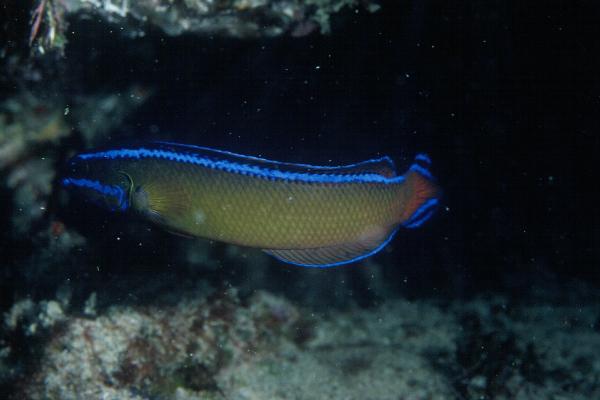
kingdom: Animalia
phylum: Chordata
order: Perciformes
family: Pseudochromidae
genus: Pseudochromis
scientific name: Pseudochromis dutoiti
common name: Dutoiti
